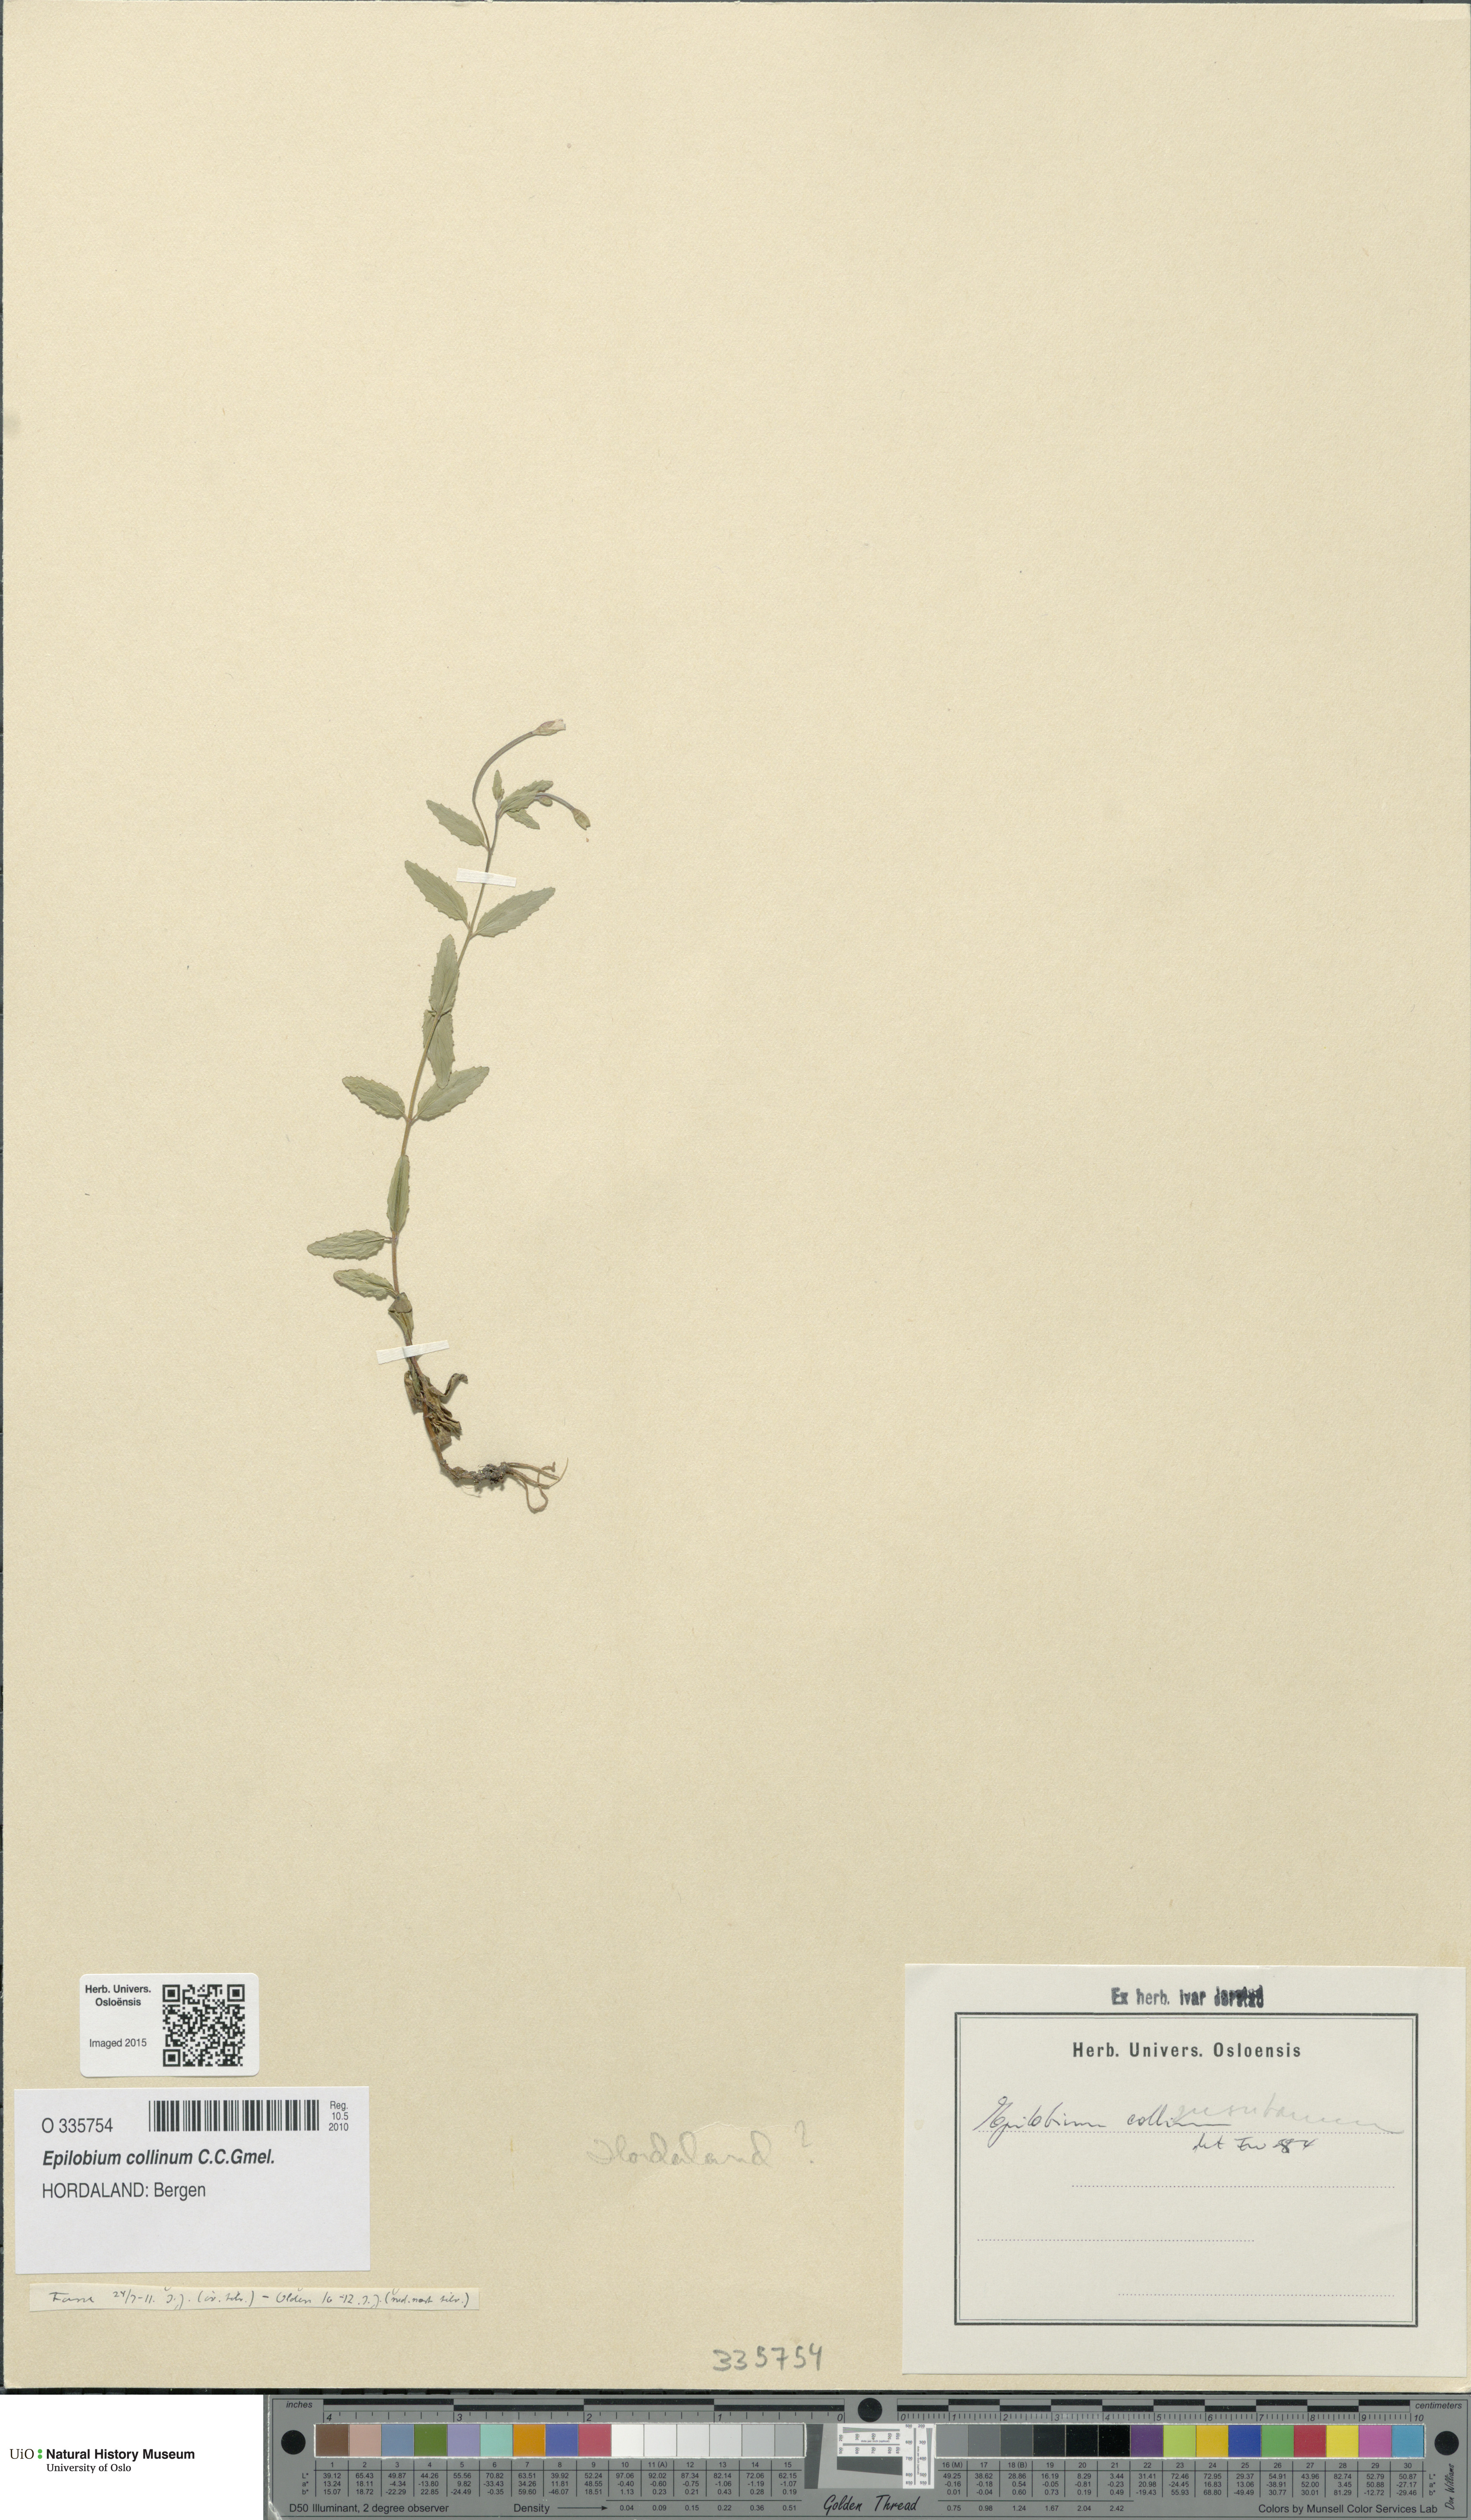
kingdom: Plantae
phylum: Tracheophyta
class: Magnoliopsida
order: Myrtales
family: Onagraceae
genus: Epilobium
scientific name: Epilobium collinum
